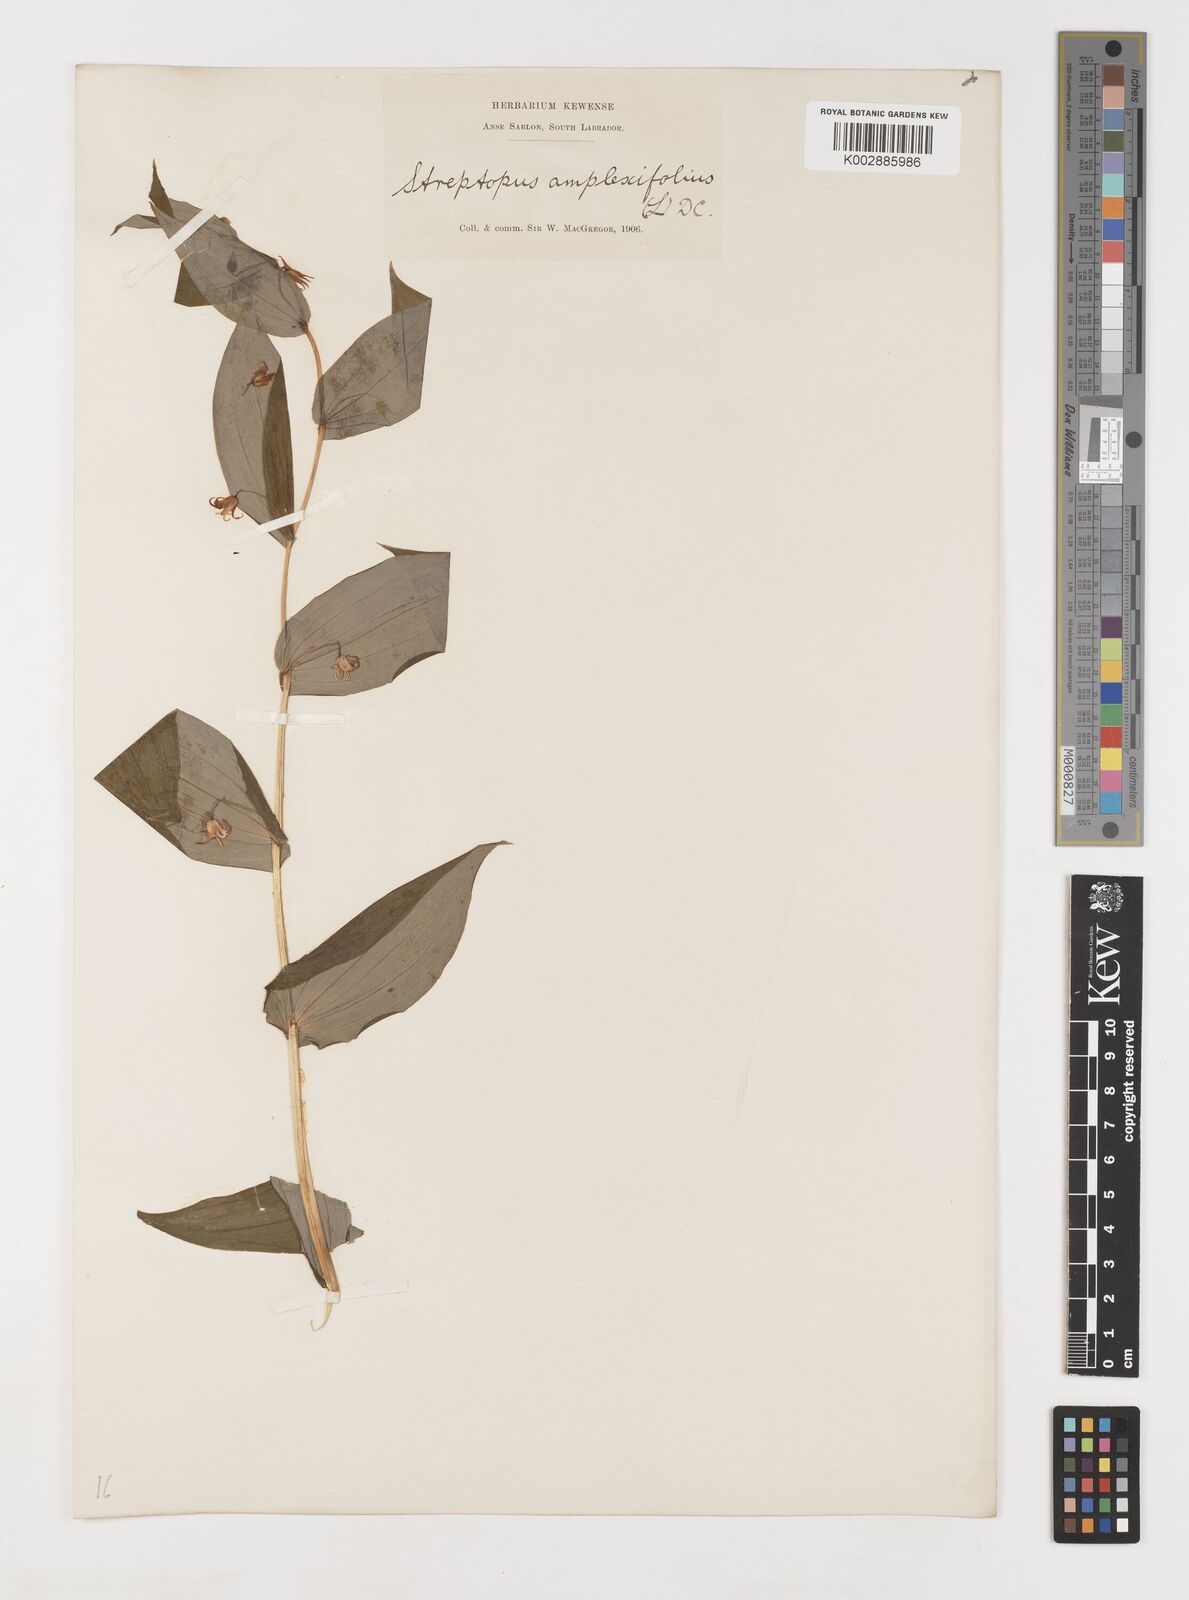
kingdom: Plantae
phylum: Tracheophyta
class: Liliopsida
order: Liliales
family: Liliaceae
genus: Streptopus
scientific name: Streptopus amplexifolius
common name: Clasp twisted stalk
